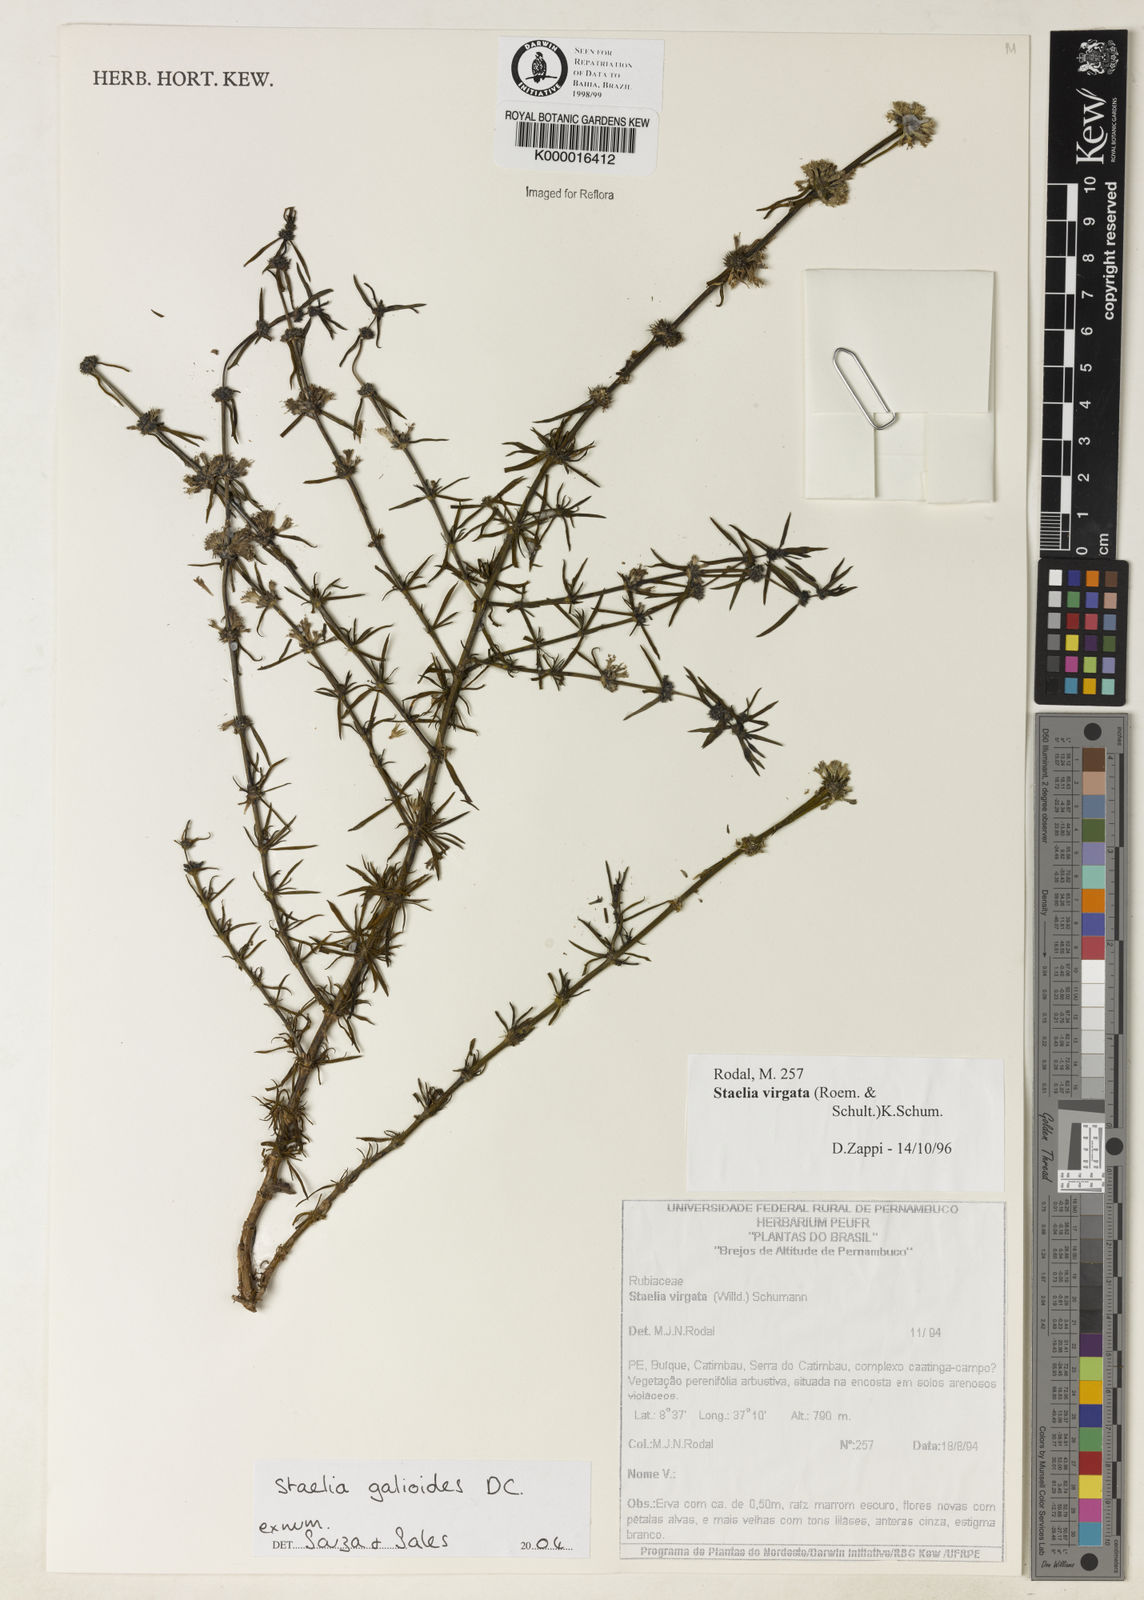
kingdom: Plantae
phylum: Tracheophyta
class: Magnoliopsida
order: Gentianales
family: Rubiaceae
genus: Staelia
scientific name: Staelia galioides
